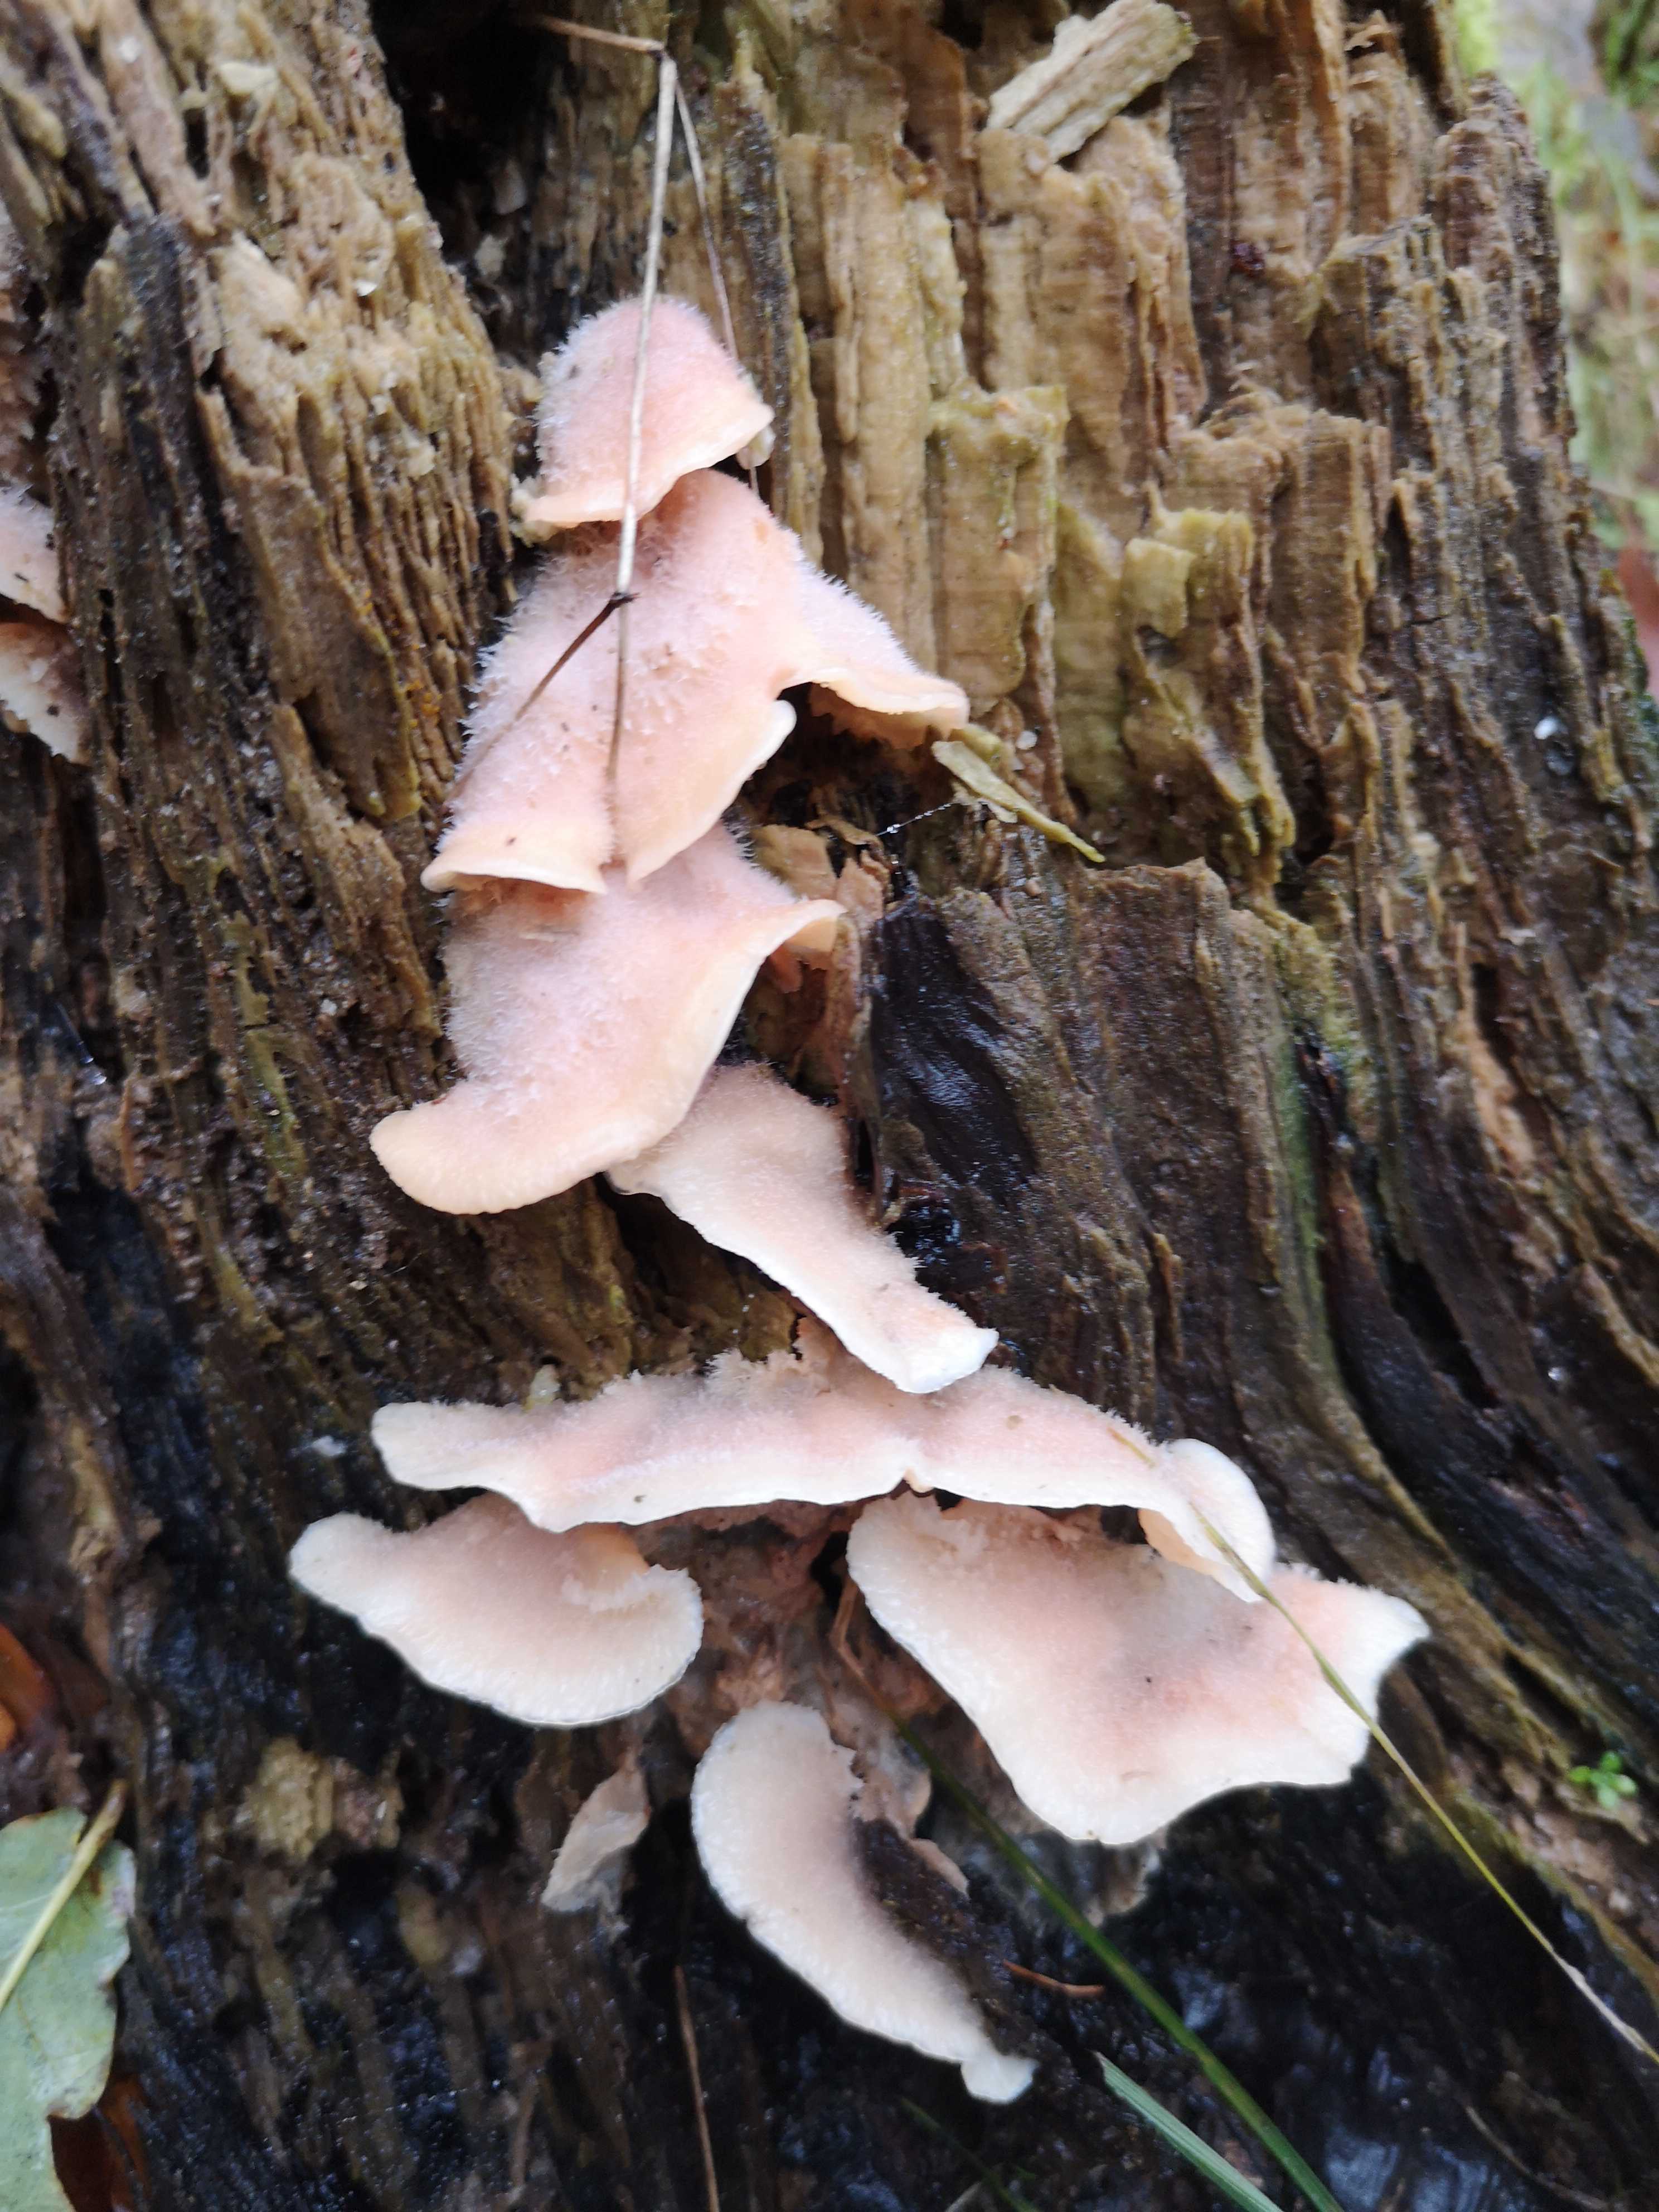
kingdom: Fungi
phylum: Basidiomycota
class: Agaricomycetes
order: Polyporales
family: Meruliaceae
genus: Phlebia
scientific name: Phlebia tremellosa
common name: bævrende åresvamp
